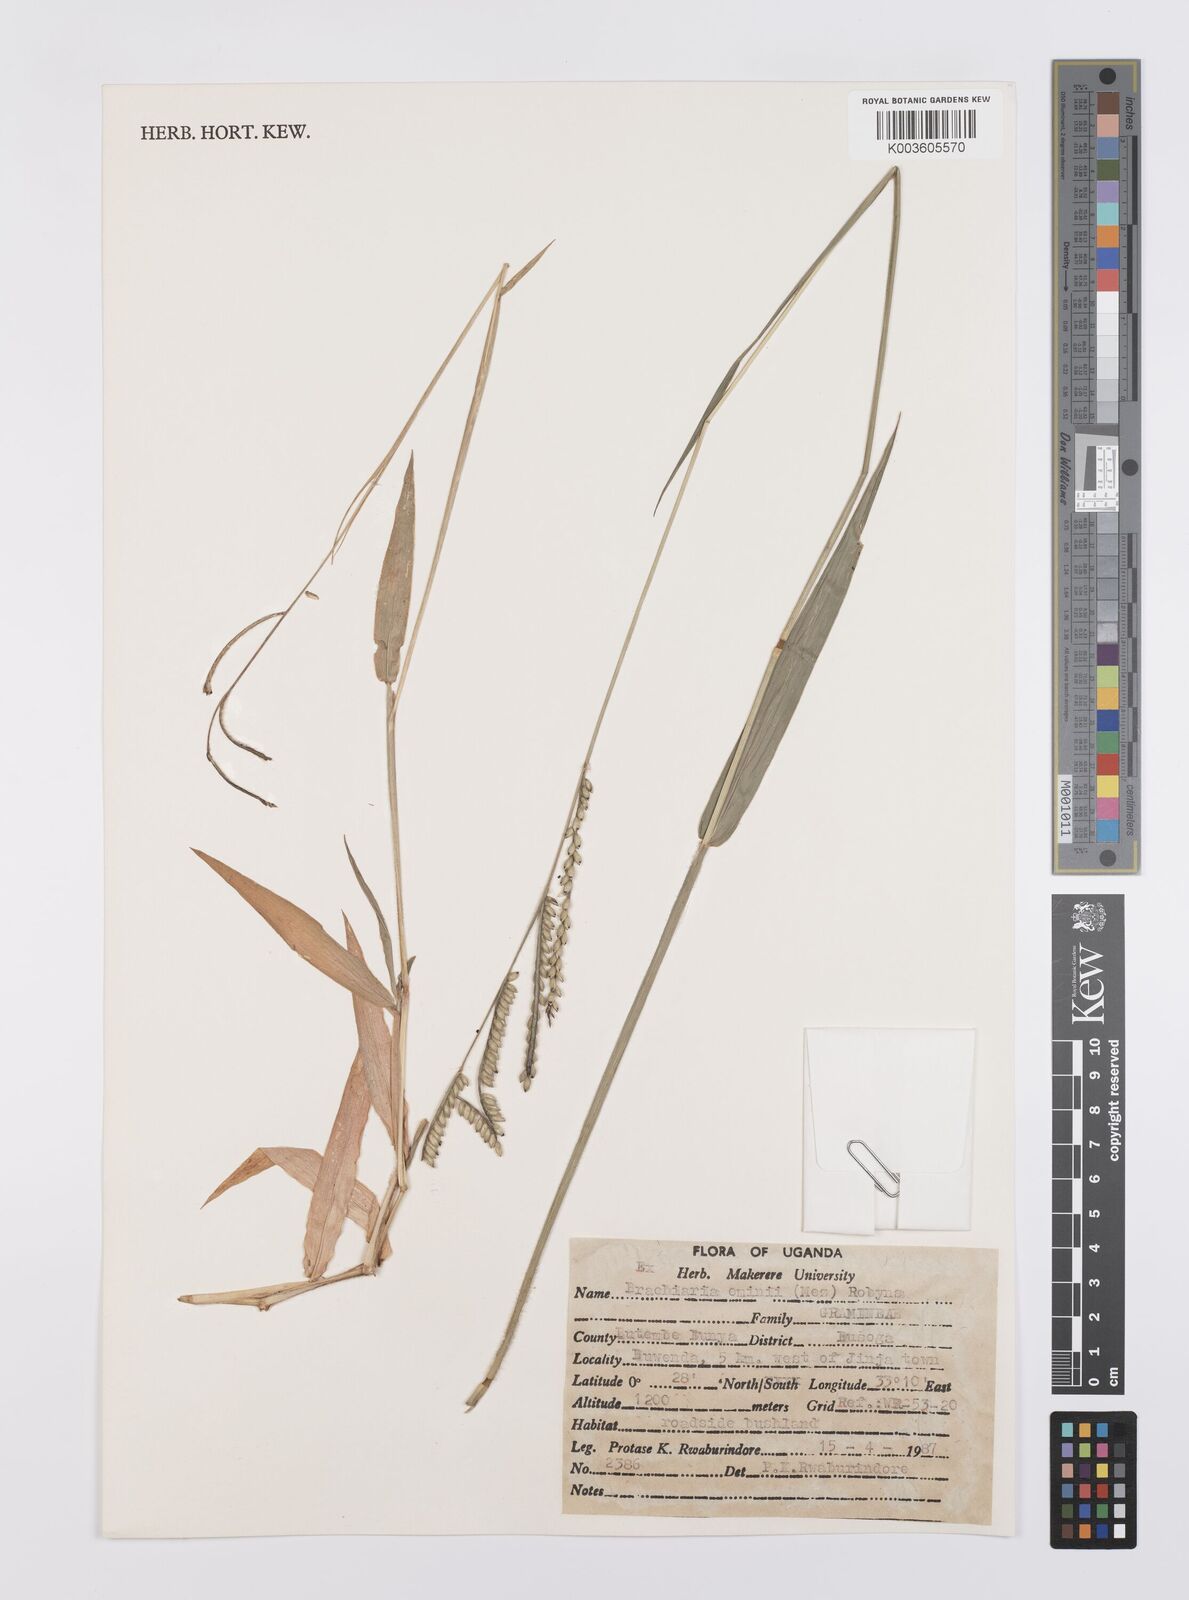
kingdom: Plantae
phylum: Tracheophyta
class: Liliopsida
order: Poales
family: Poaceae
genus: Urochloa
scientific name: Urochloa eminii
